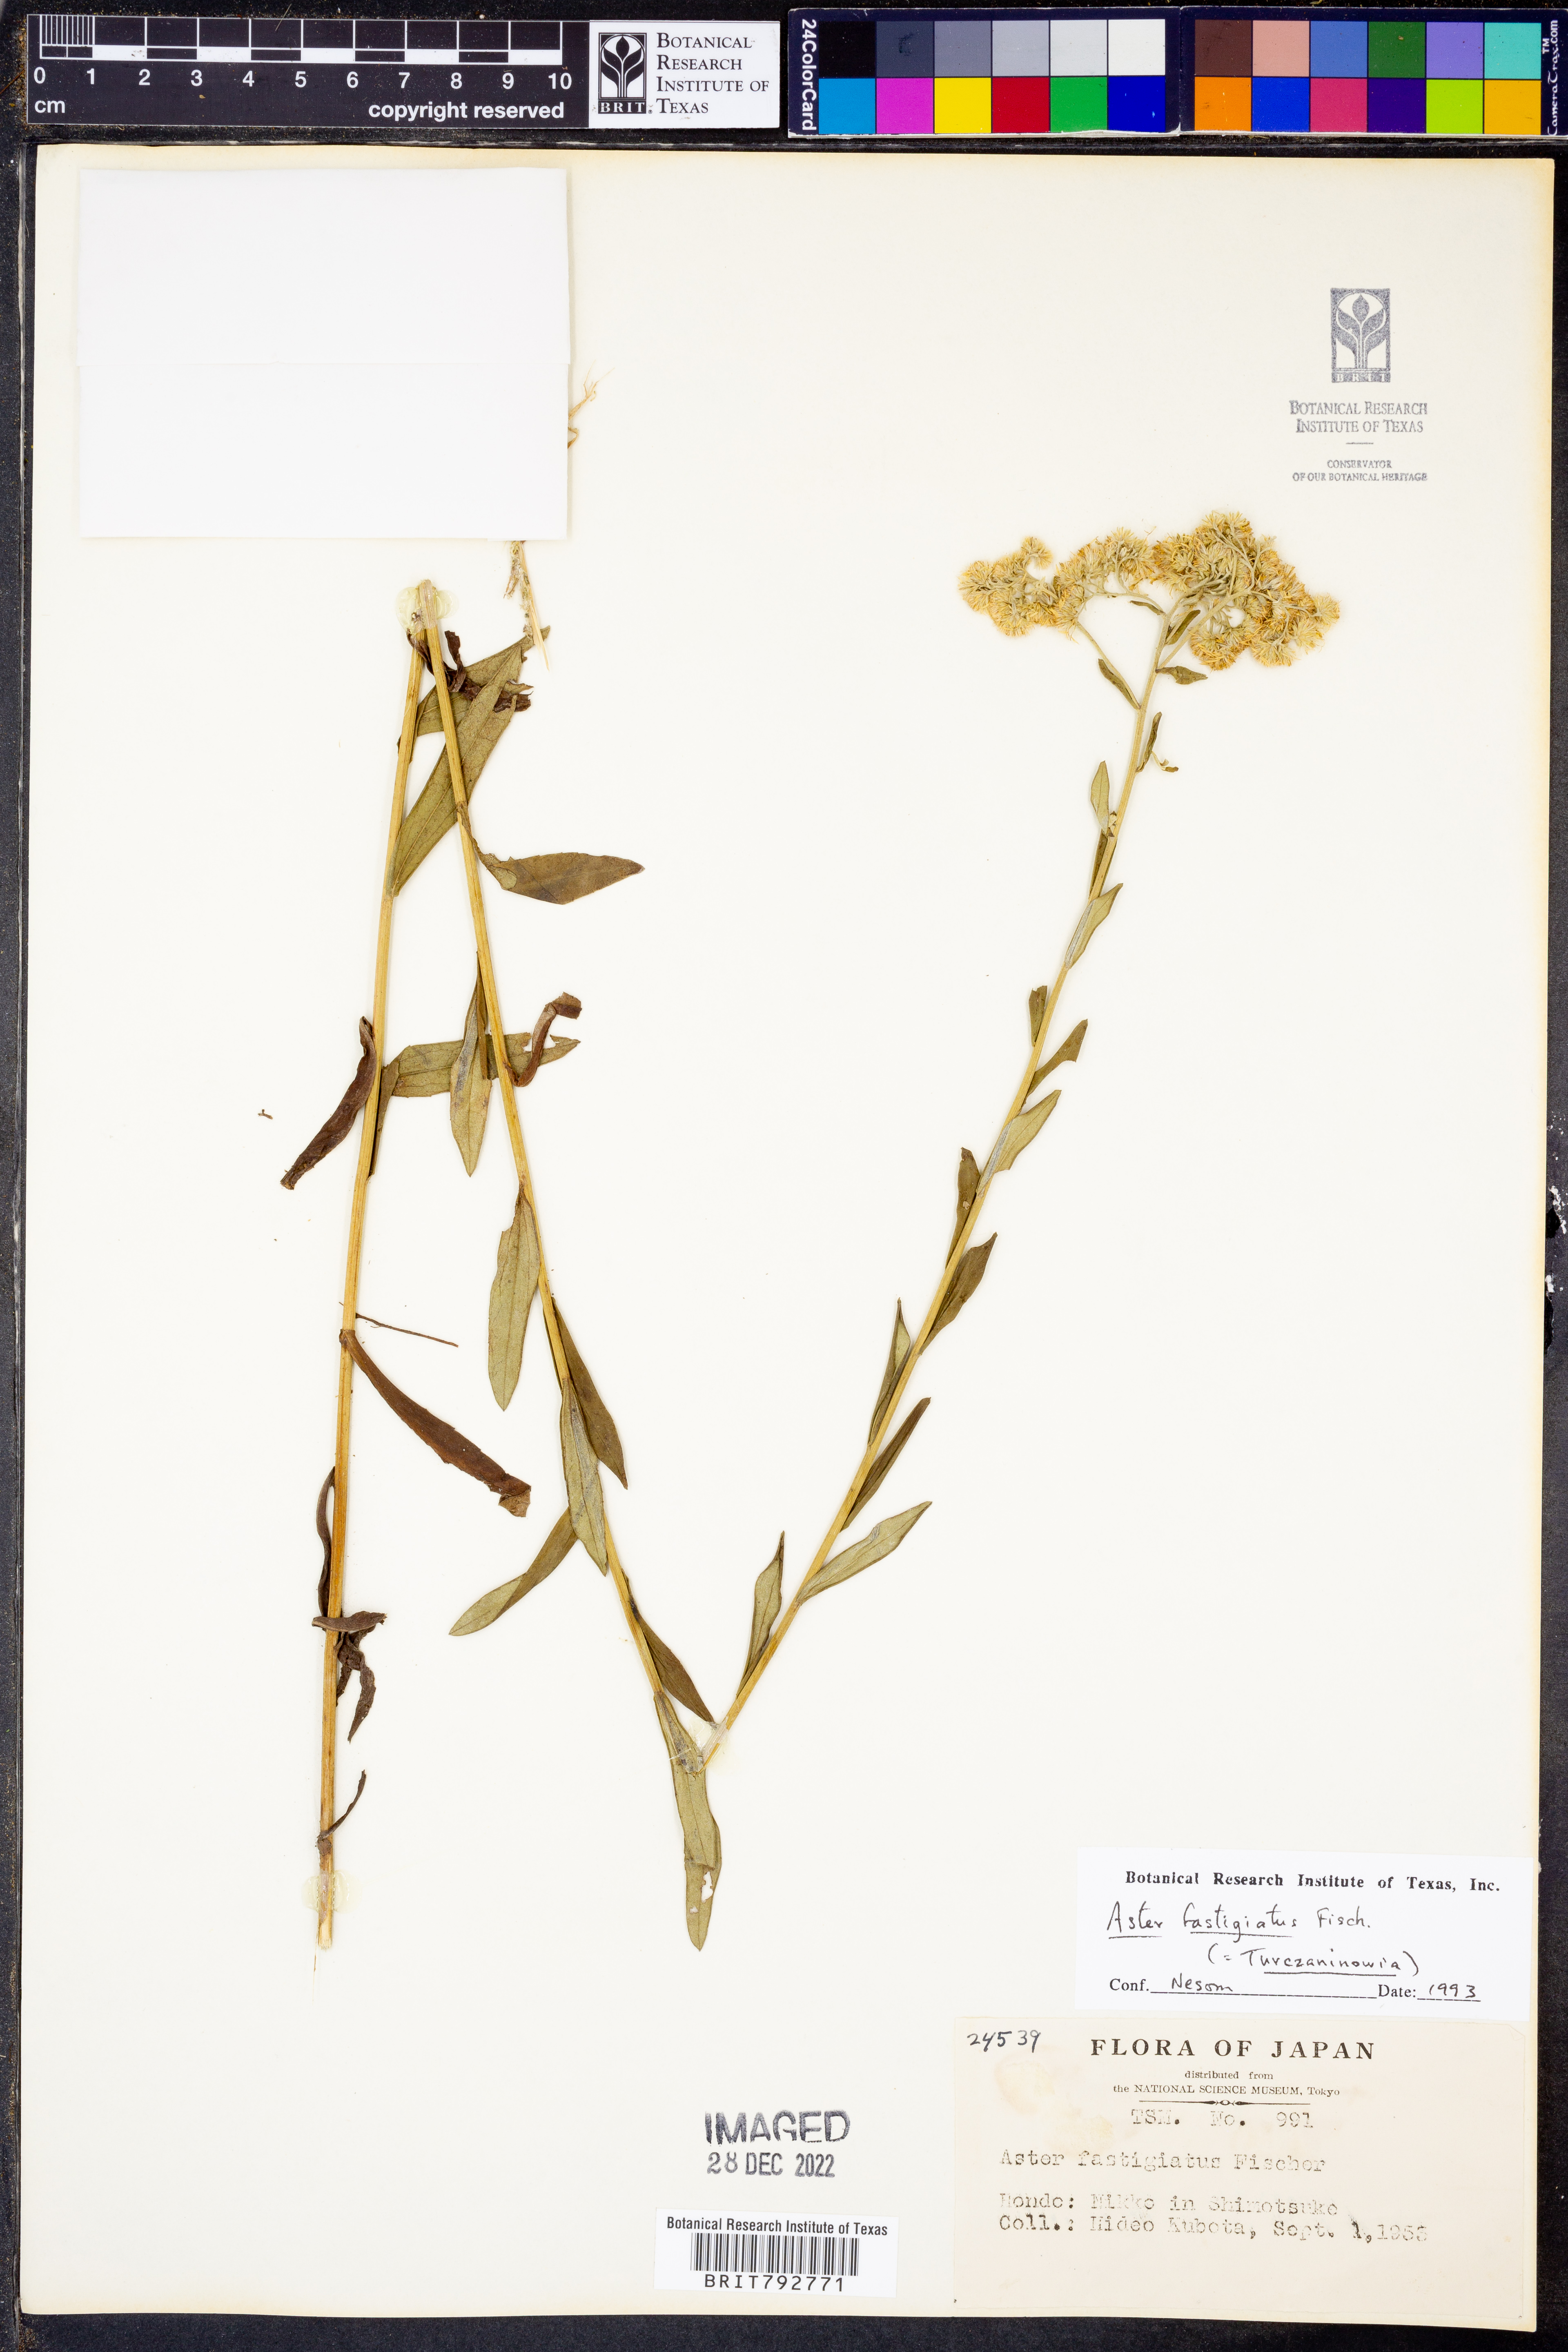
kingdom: Plantae
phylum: Tracheophyta
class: Magnoliopsida
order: Asterales
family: Asteraceae
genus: Turczaninovia
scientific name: Turczaninovia fastigiata
